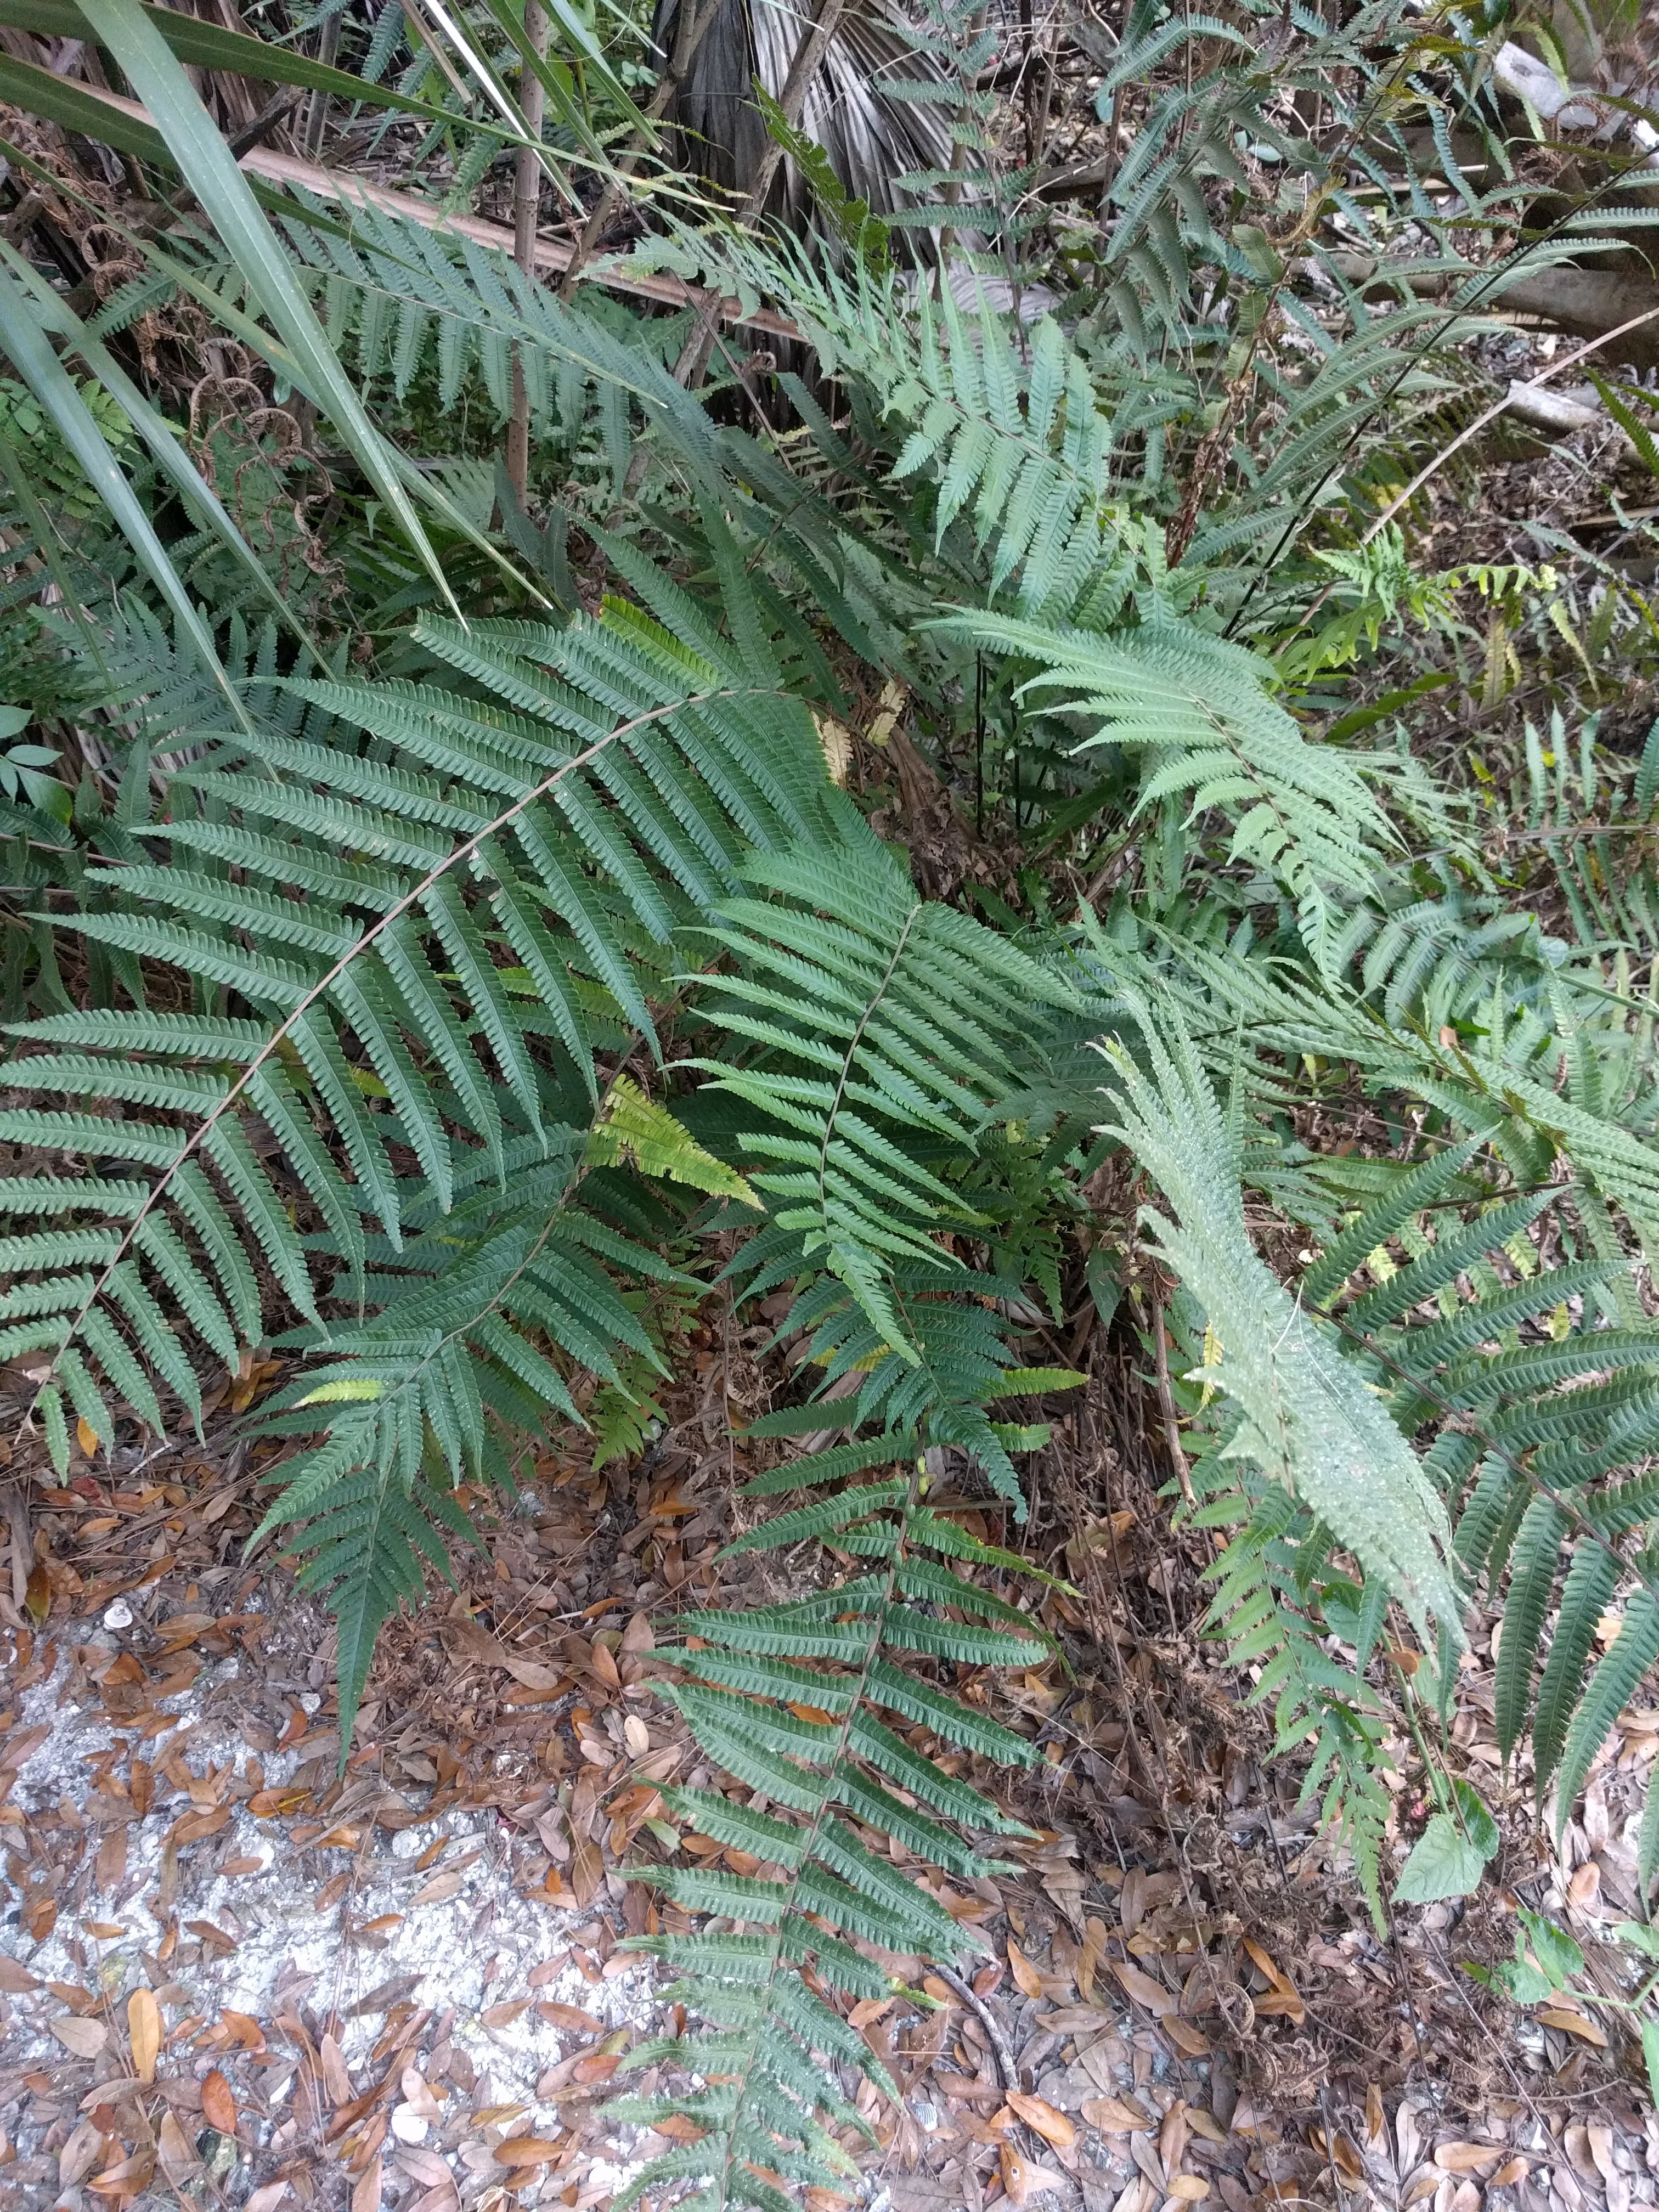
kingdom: Plantae
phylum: Tracheophyta
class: Polypodiopsida
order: Polypodiales
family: Thelypteridaceae
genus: Christella
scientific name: Christella hispidula
